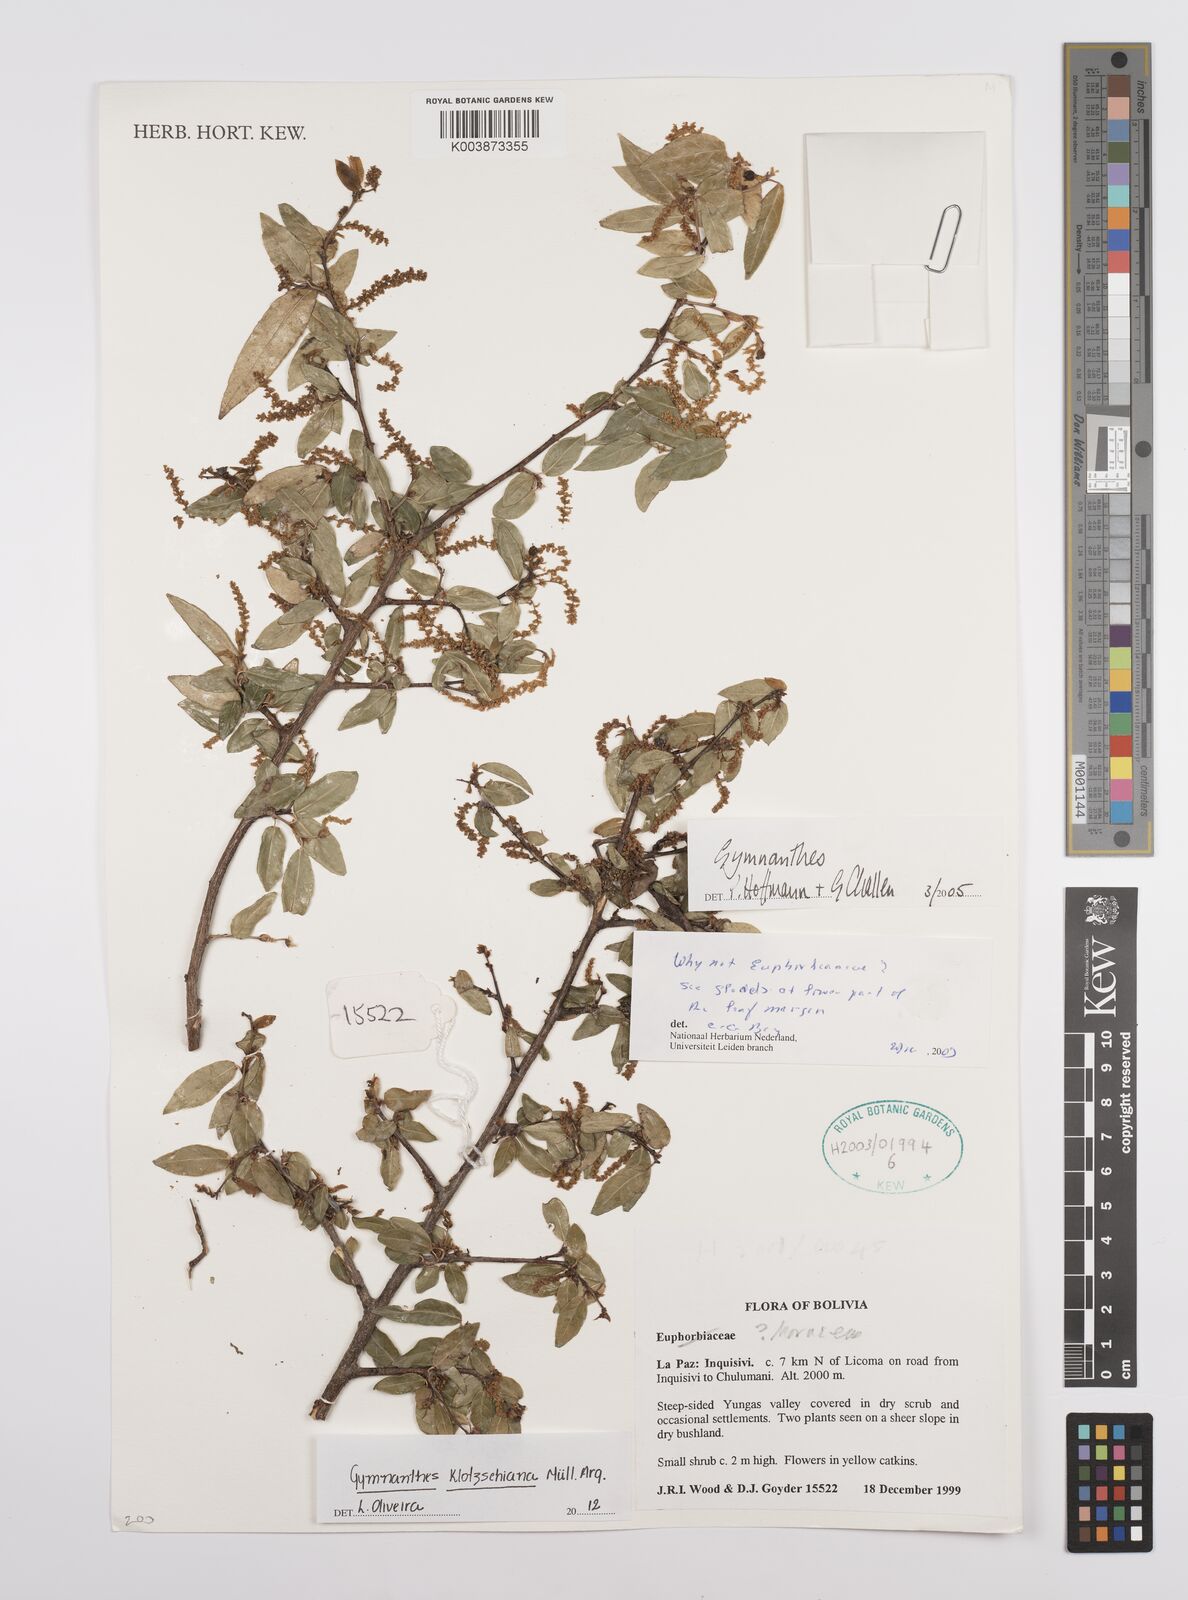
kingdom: Plantae
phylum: Tracheophyta
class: Magnoliopsida
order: Malpighiales
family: Euphorbiaceae
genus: Sebastiania
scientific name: Sebastiania klotzschiana
